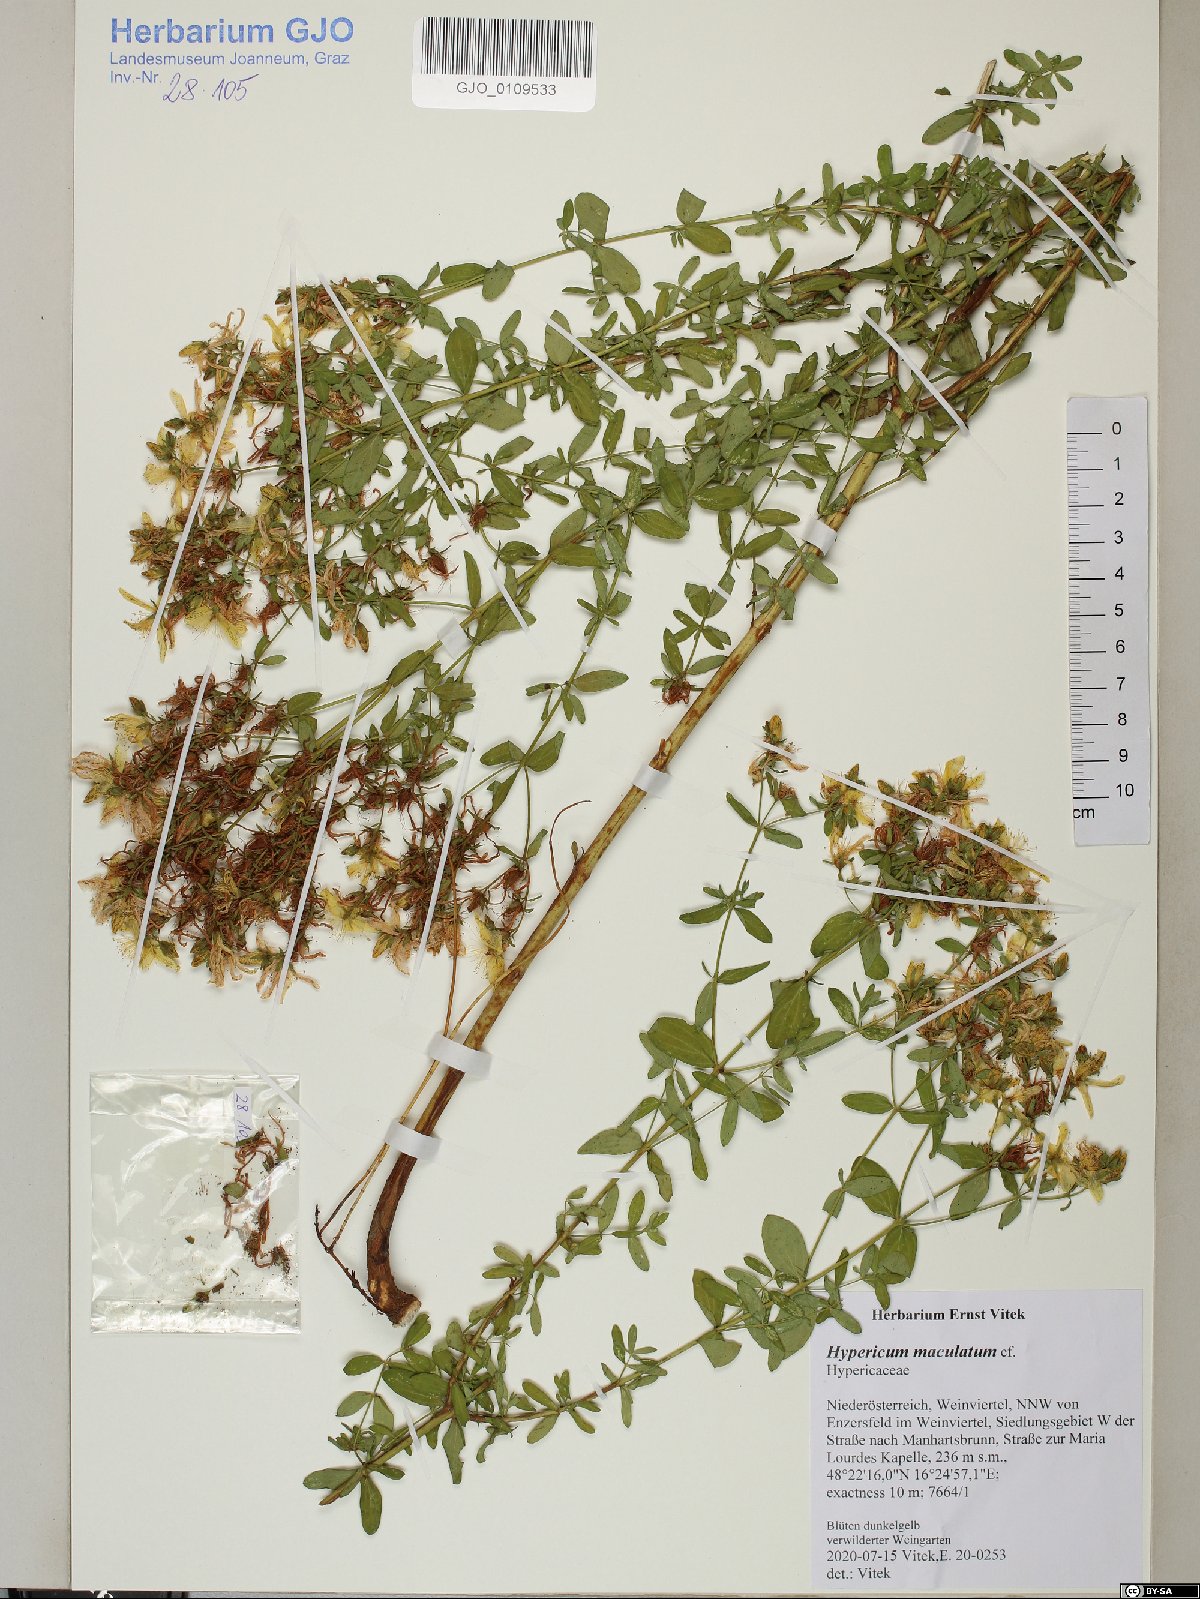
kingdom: Plantae
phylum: Tracheophyta
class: Magnoliopsida
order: Malpighiales
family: Hypericaceae
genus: Hypericum
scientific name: Hypericum maculatum
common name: Imperforate st. john's-wort
